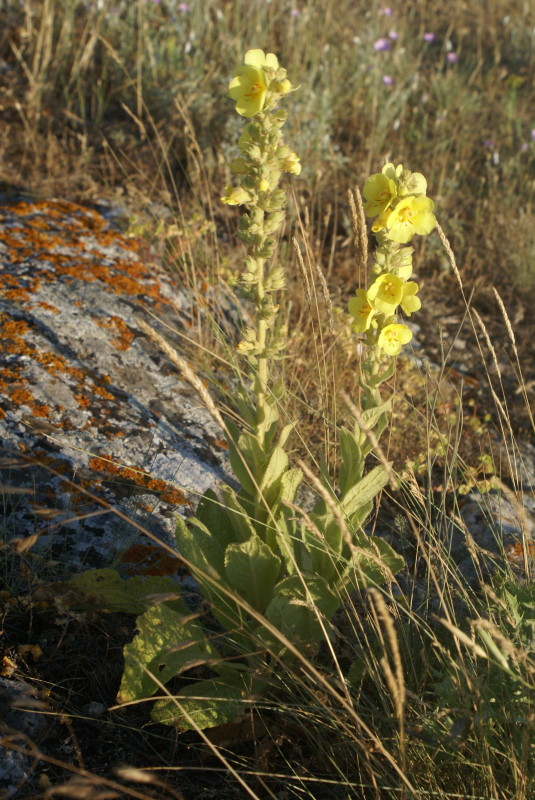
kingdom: Plantae
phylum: Tracheophyta
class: Magnoliopsida
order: Lamiales
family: Scrophulariaceae
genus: Verbascum
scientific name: Verbascum
